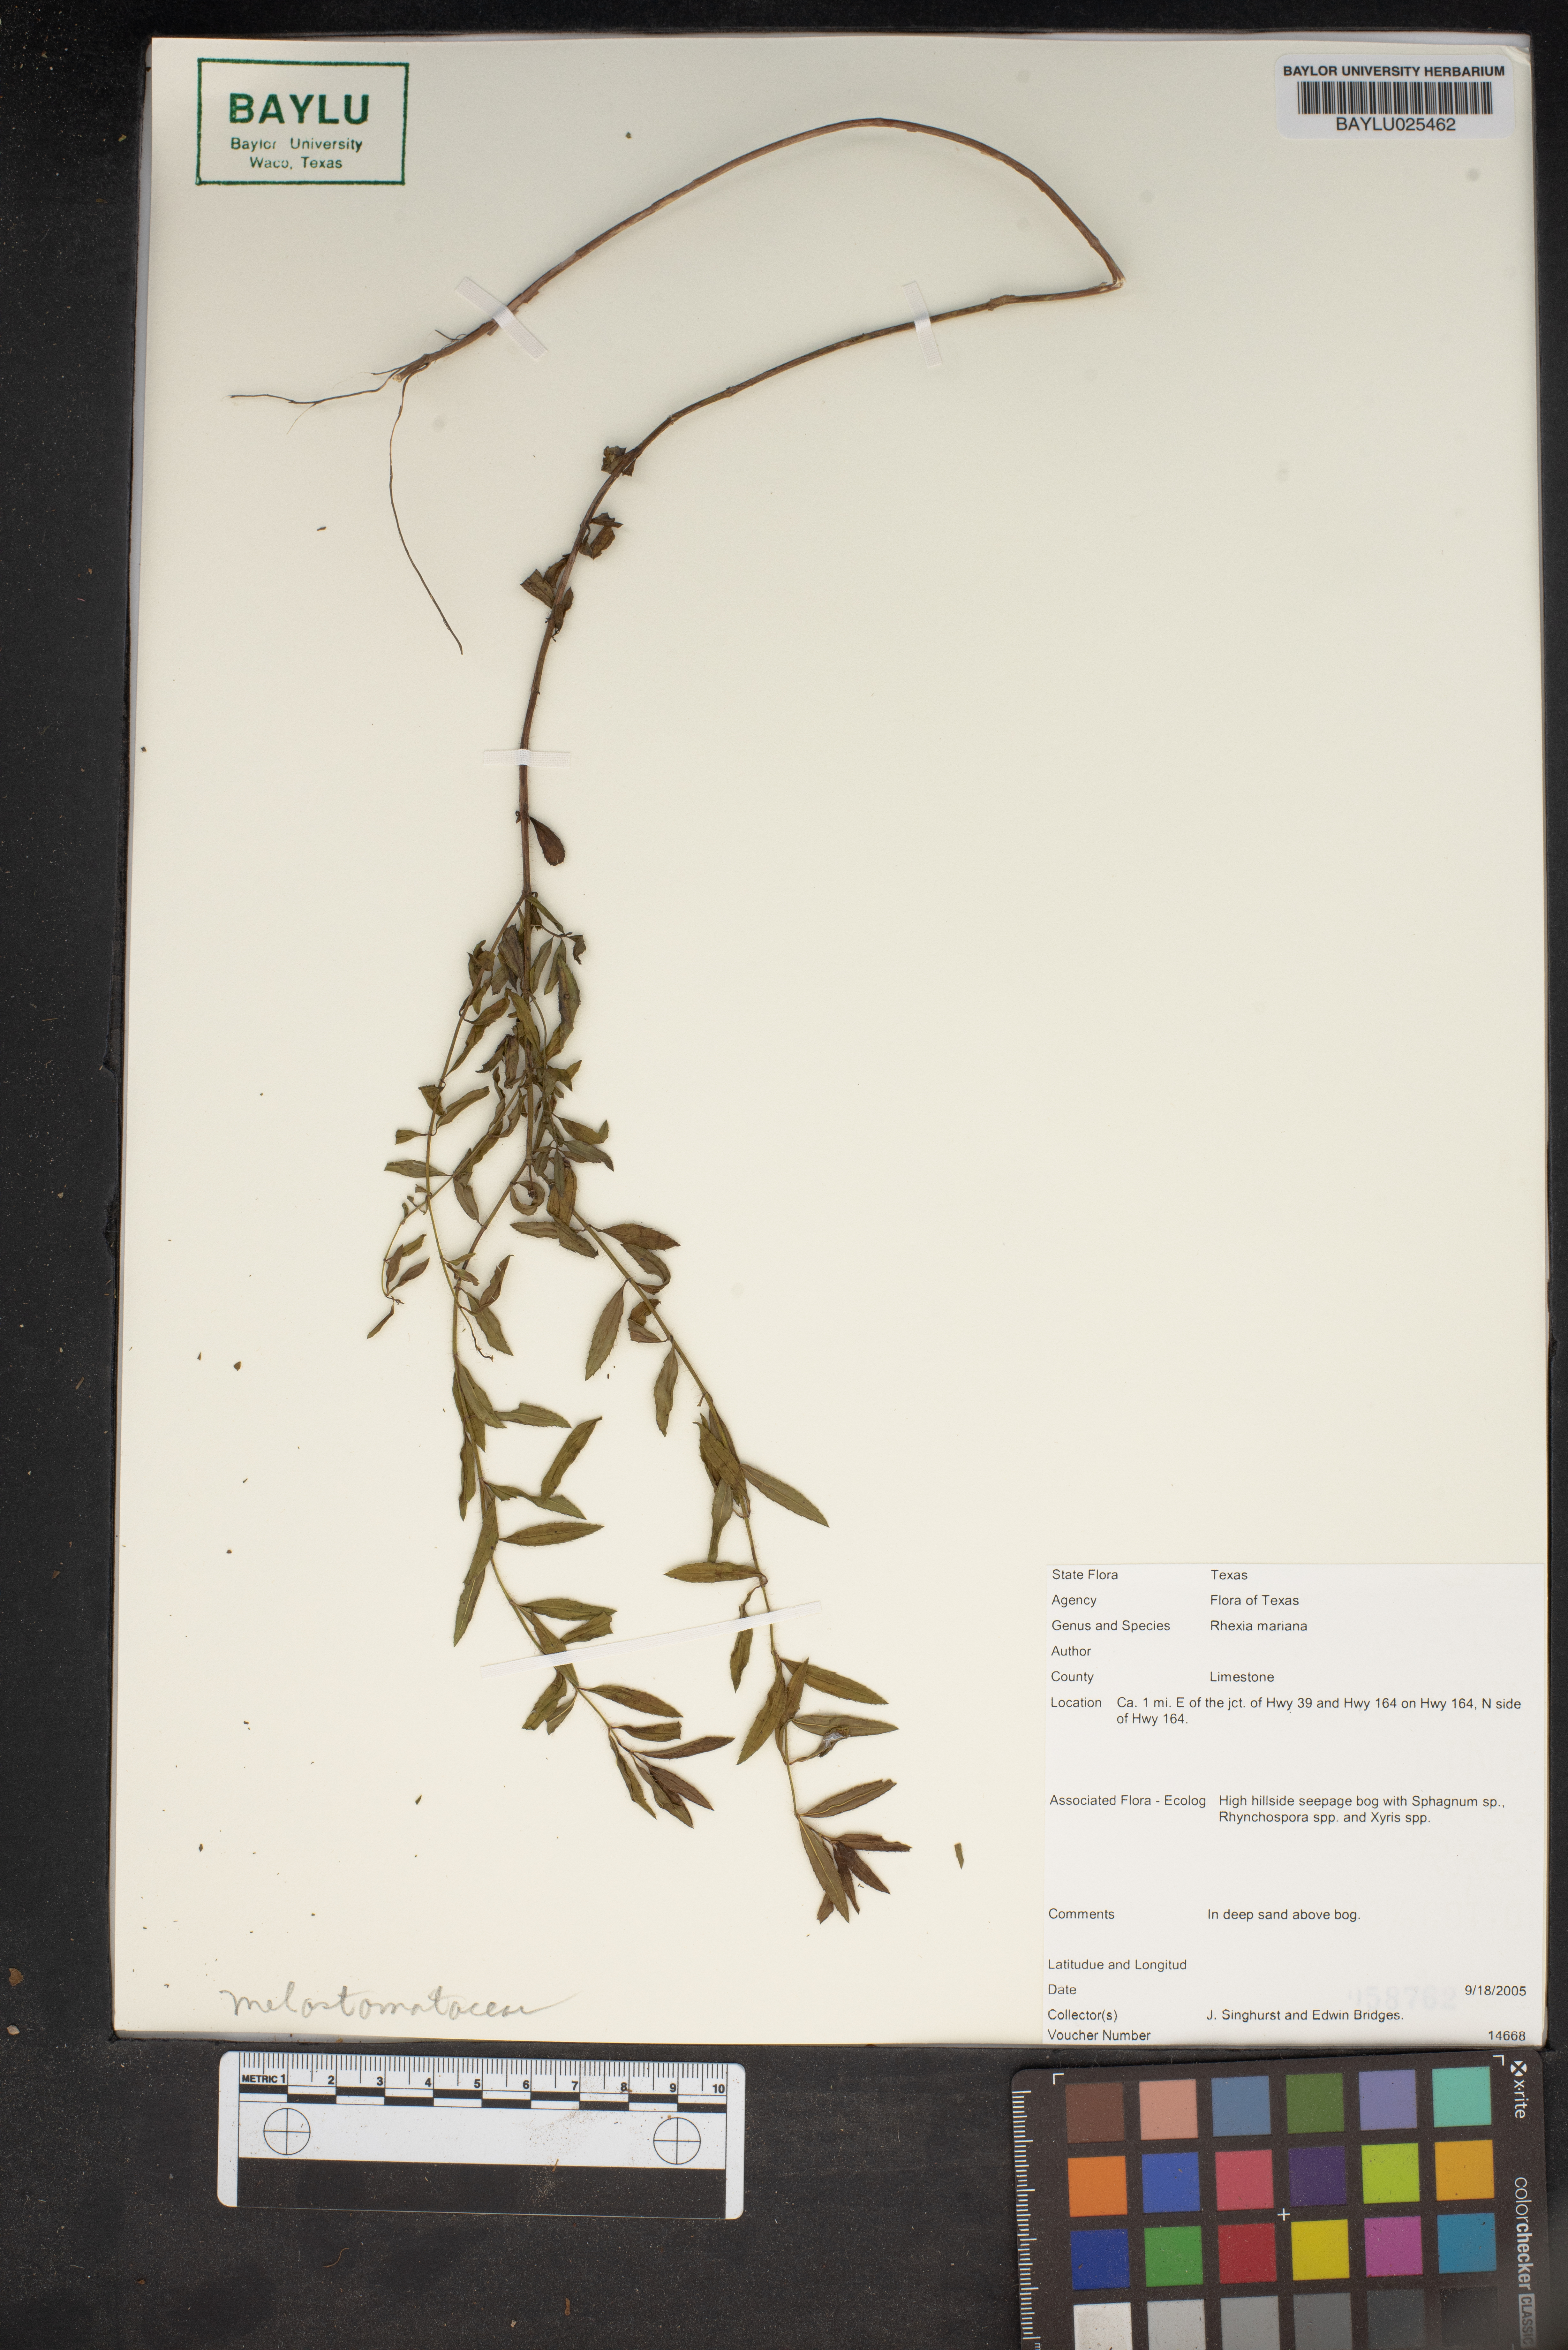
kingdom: Plantae
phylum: Tracheophyta
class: Magnoliopsida
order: Myrtales
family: Melastomataceae
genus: Rhexia
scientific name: Rhexia mariana
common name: Dull meadow-pitcher
